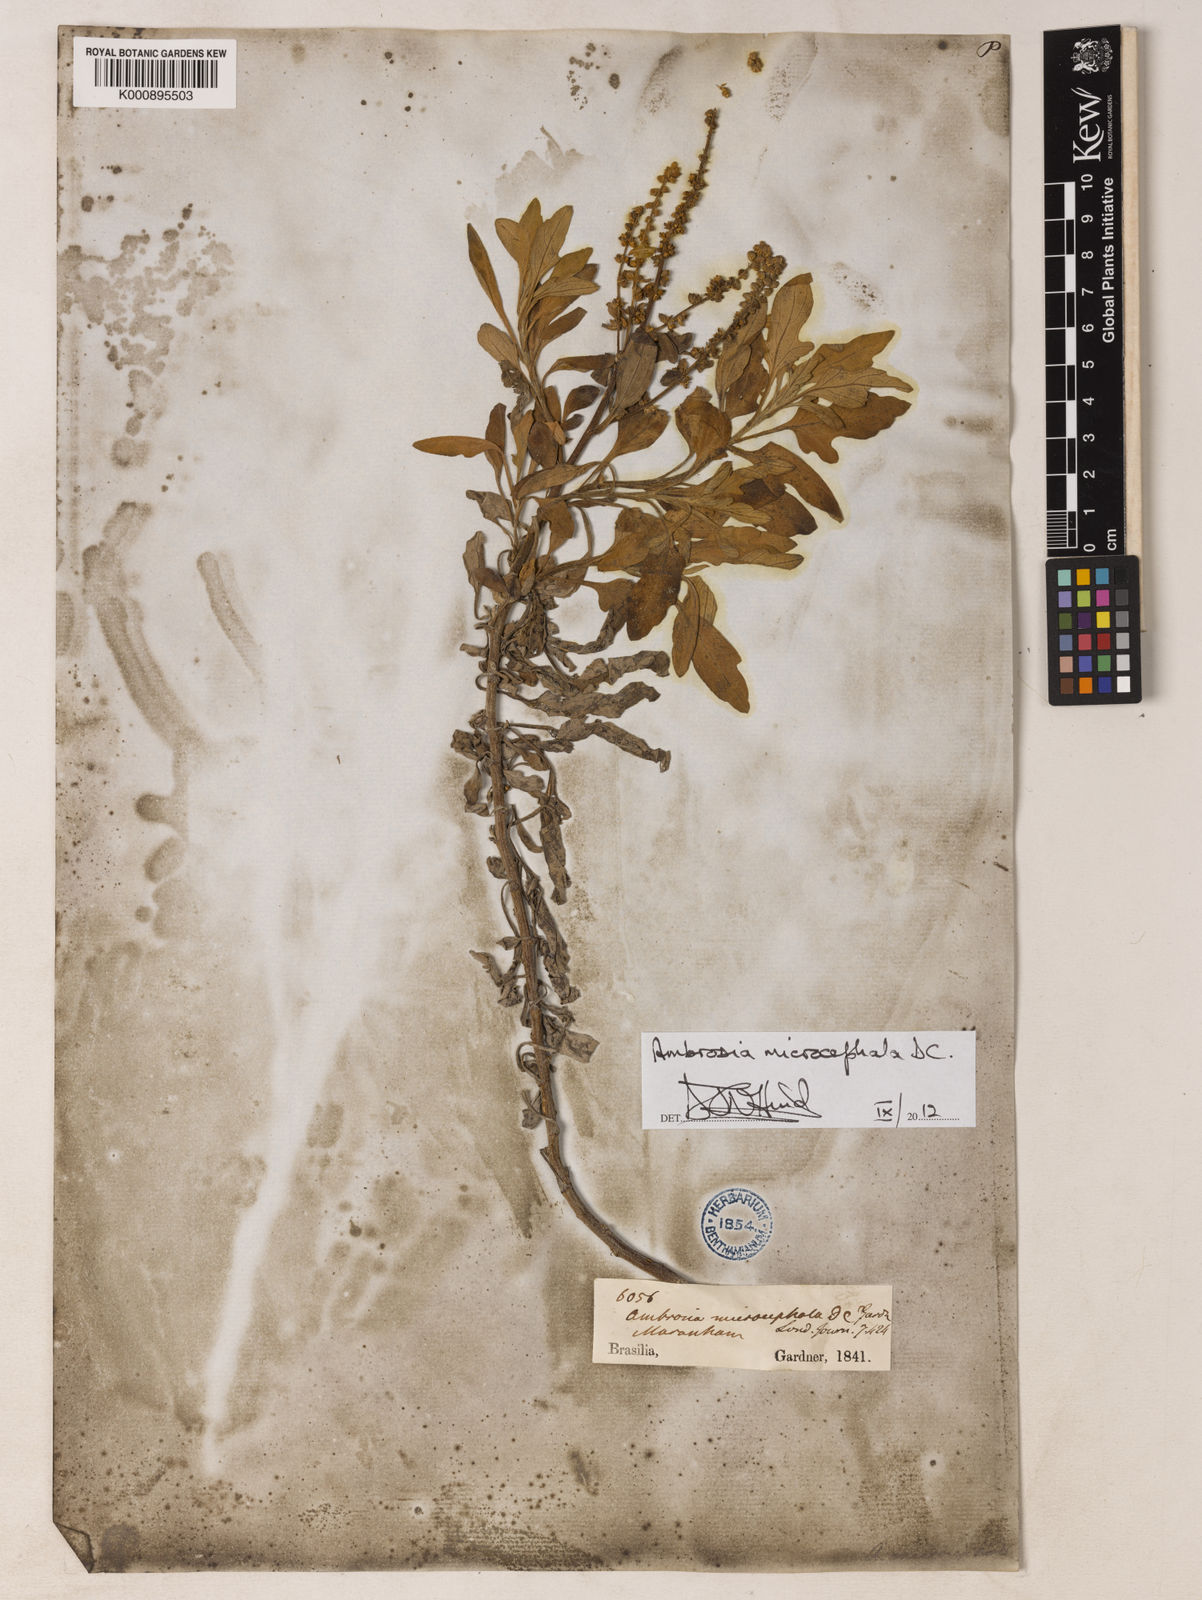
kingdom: Plantae
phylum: Tracheophyta
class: Magnoliopsida
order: Asterales
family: Asteraceae
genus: Ambrosia
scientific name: Ambrosia microcephala
